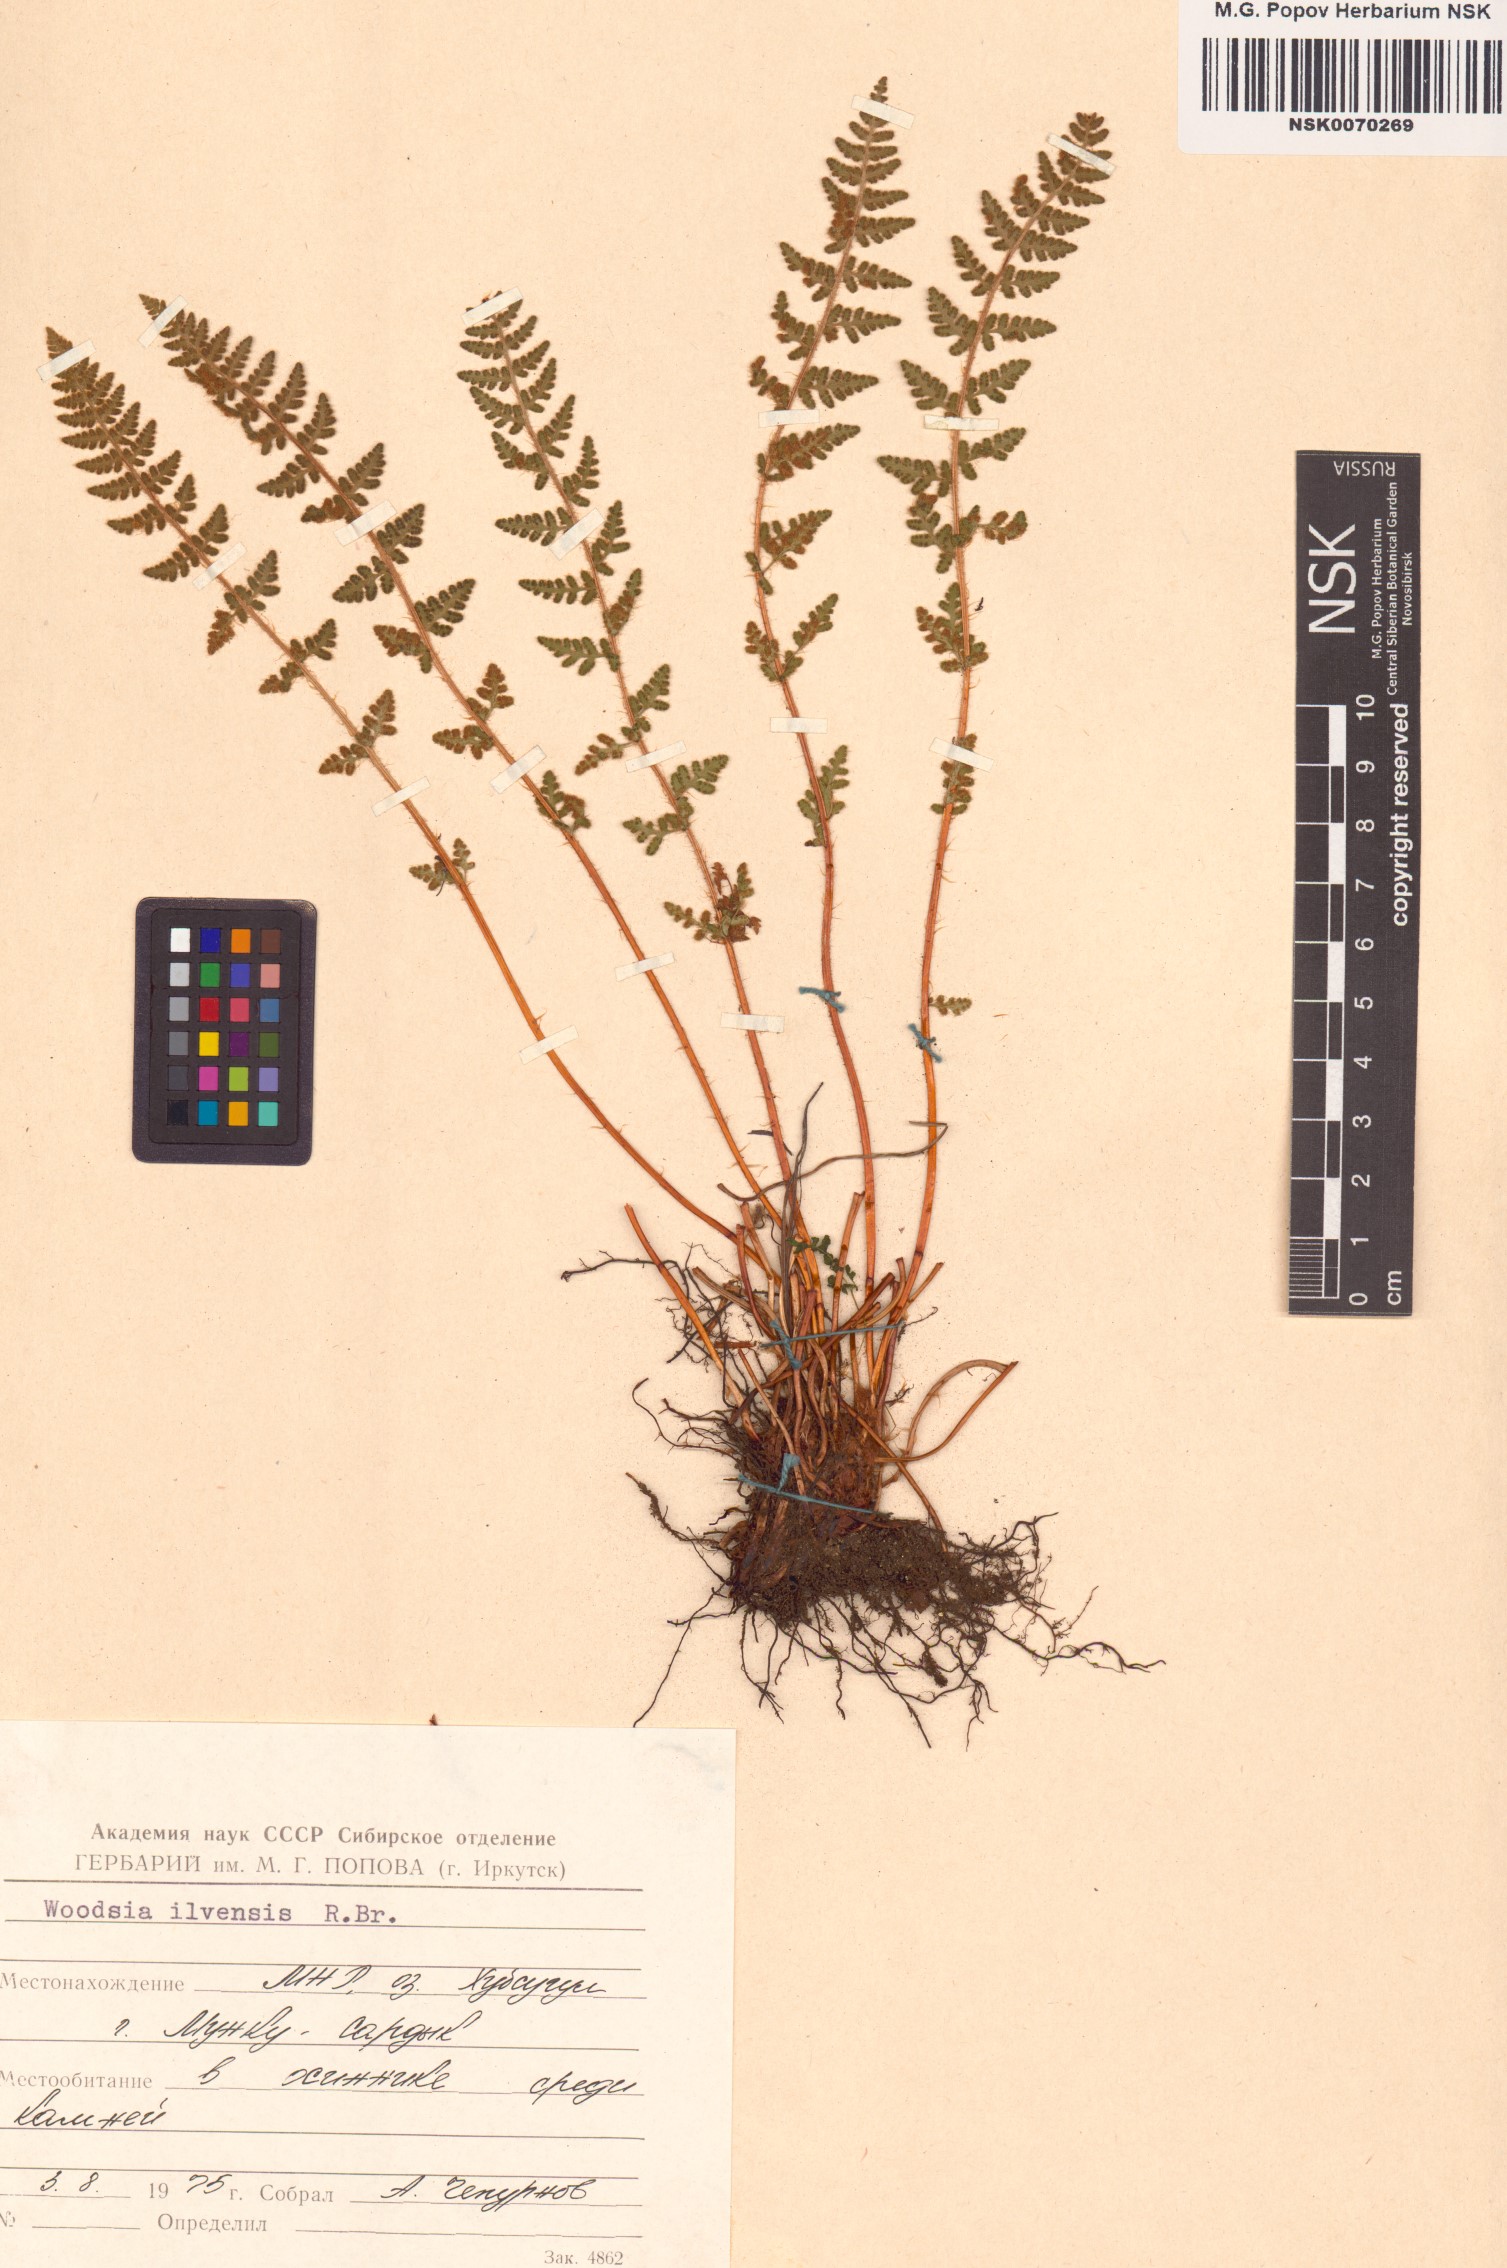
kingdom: Plantae
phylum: Tracheophyta
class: Polypodiopsida
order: Polypodiales
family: Woodsiaceae
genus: Woodsia
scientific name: Woodsia ilvensis
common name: Fragrant woodsia
